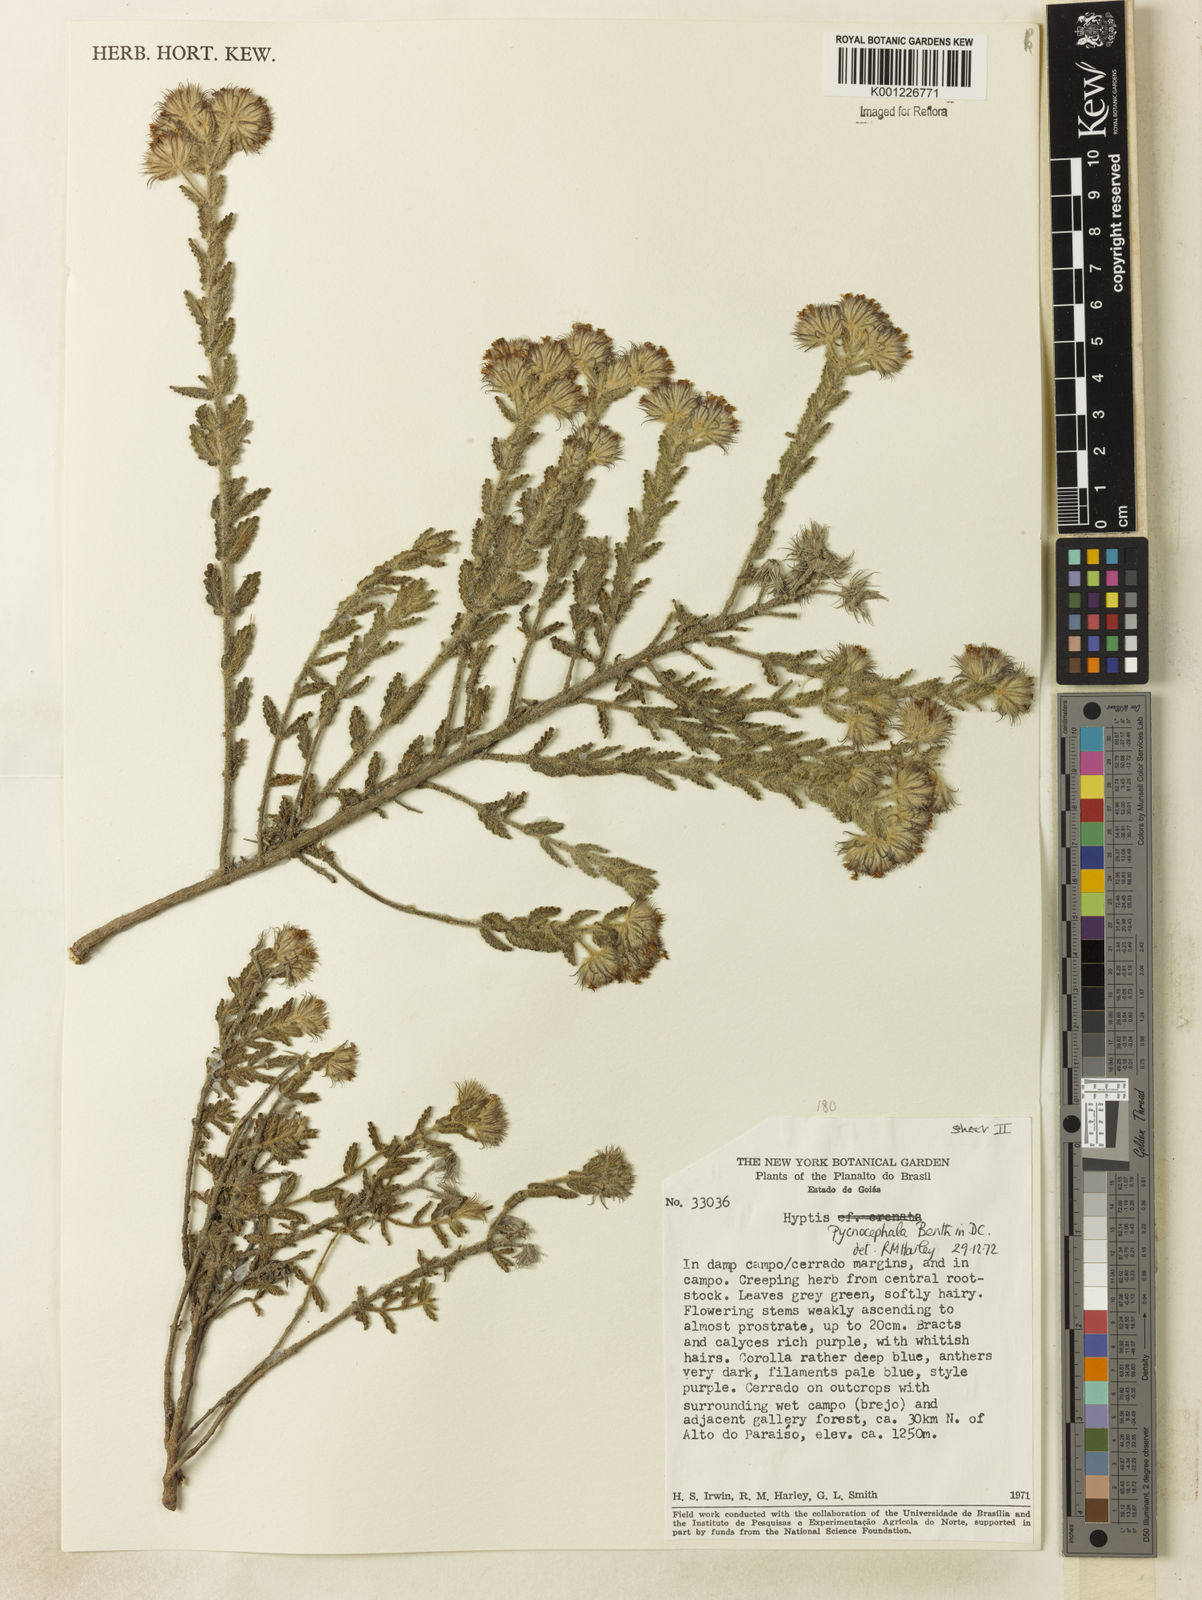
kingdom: Plantae
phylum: Tracheophyta
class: Magnoliopsida
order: Lamiales
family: Lamiaceae
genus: Hyptis
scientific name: Hyptis pycnocephala
